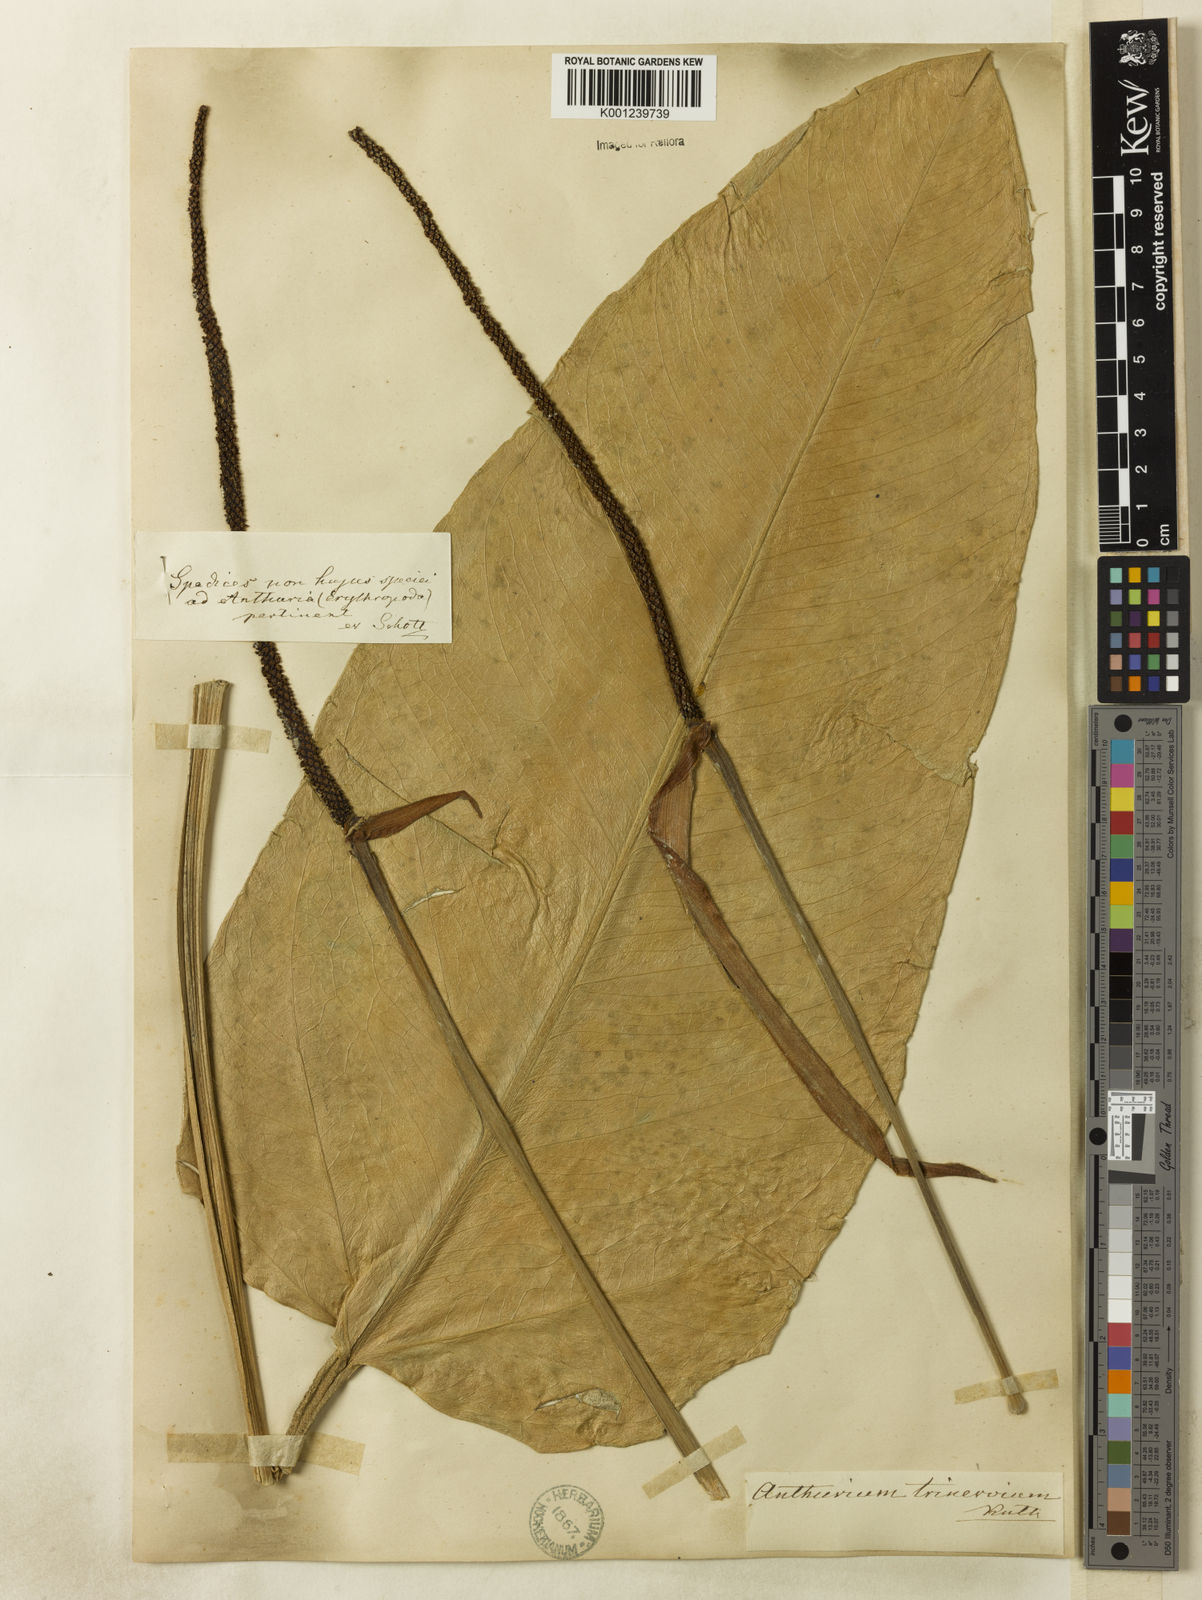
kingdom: Plantae
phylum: Tracheophyta
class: Liliopsida
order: Alismatales
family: Araceae
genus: Anthurium
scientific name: Anthurium trinervium
